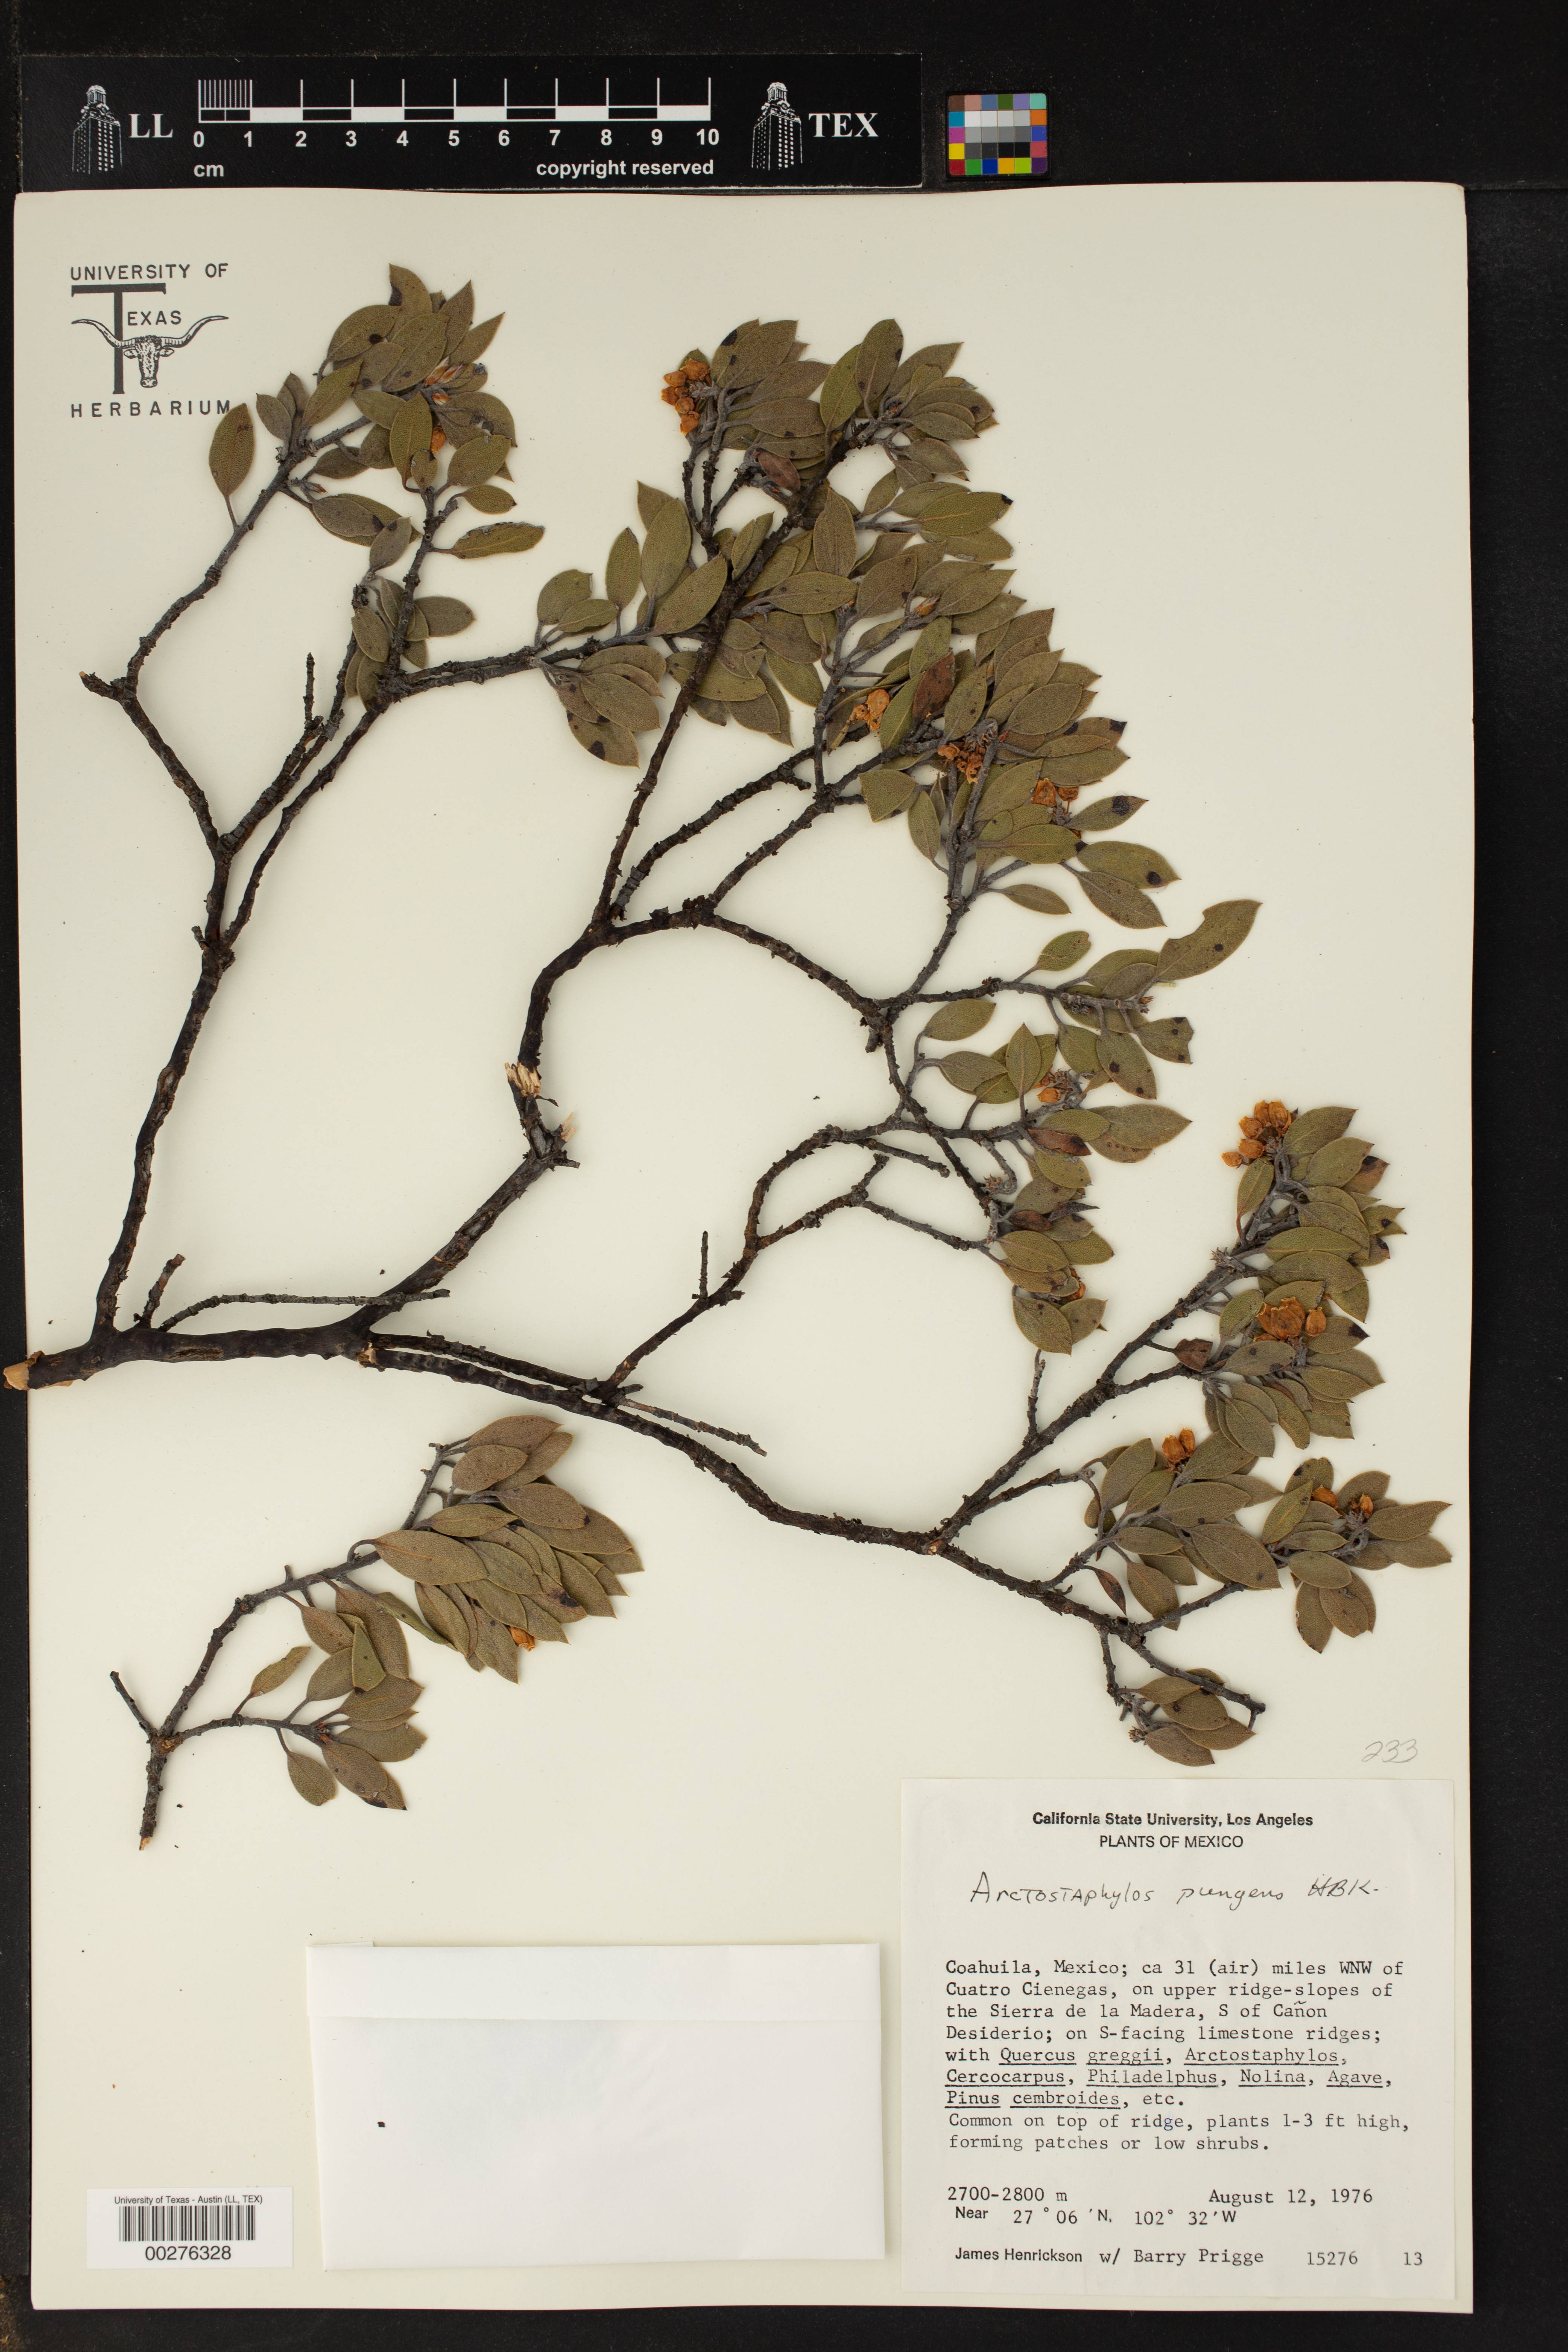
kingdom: Plantae
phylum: Tracheophyta
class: Magnoliopsida
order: Ericales
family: Ericaceae
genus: Arctostaphylos
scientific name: Arctostaphylos pungens
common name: Mexican manzanita
